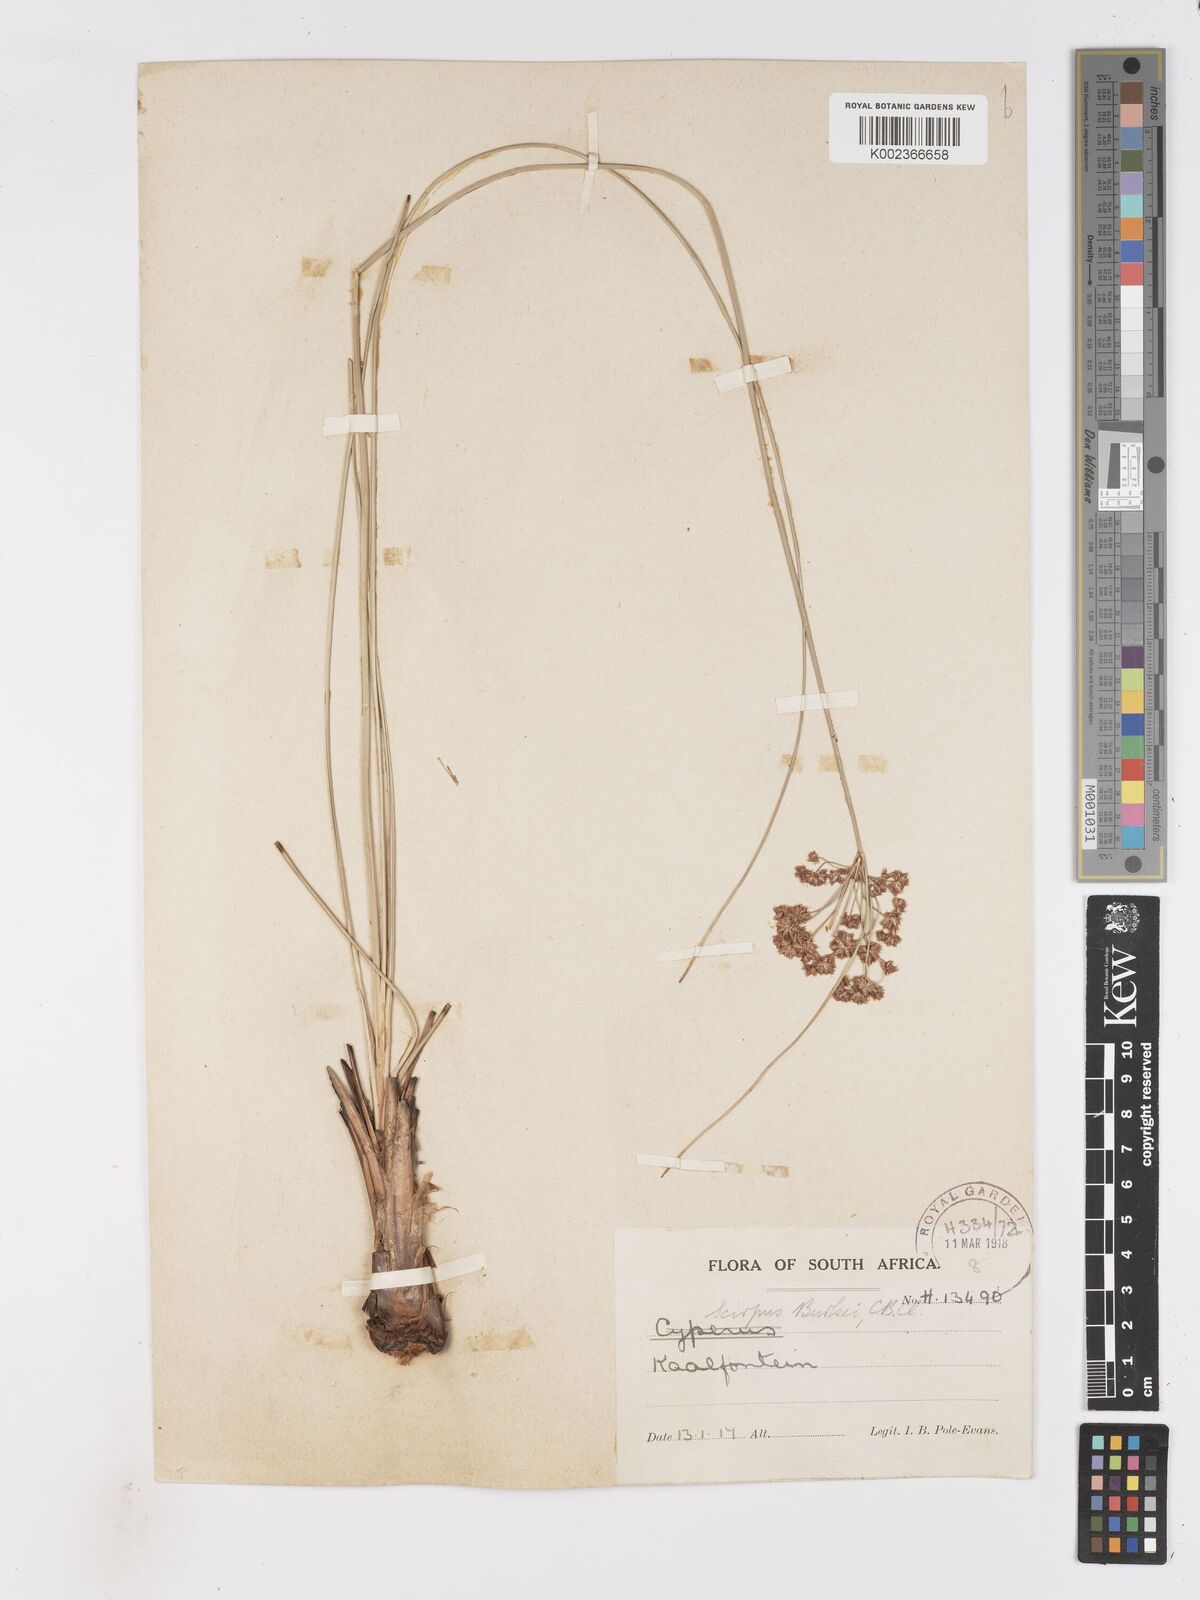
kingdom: Plantae
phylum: Tracheophyta
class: Liliopsida
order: Poales
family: Cyperaceae
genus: Scirpoides
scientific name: Scirpoides burkei
